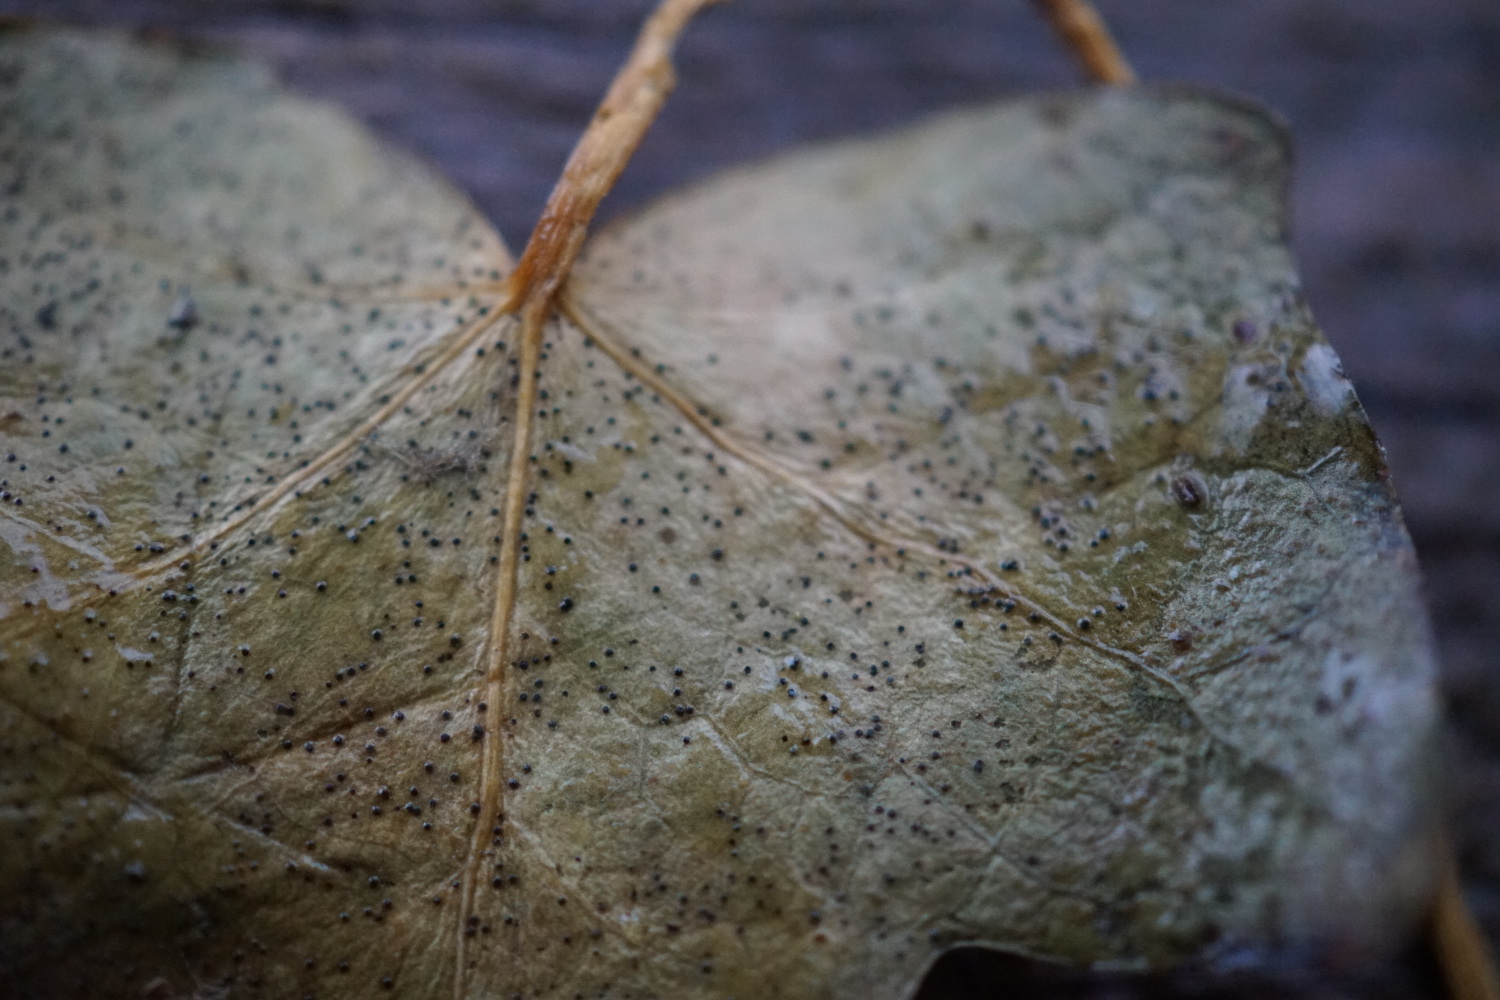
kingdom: Fungi
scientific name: Fungi
